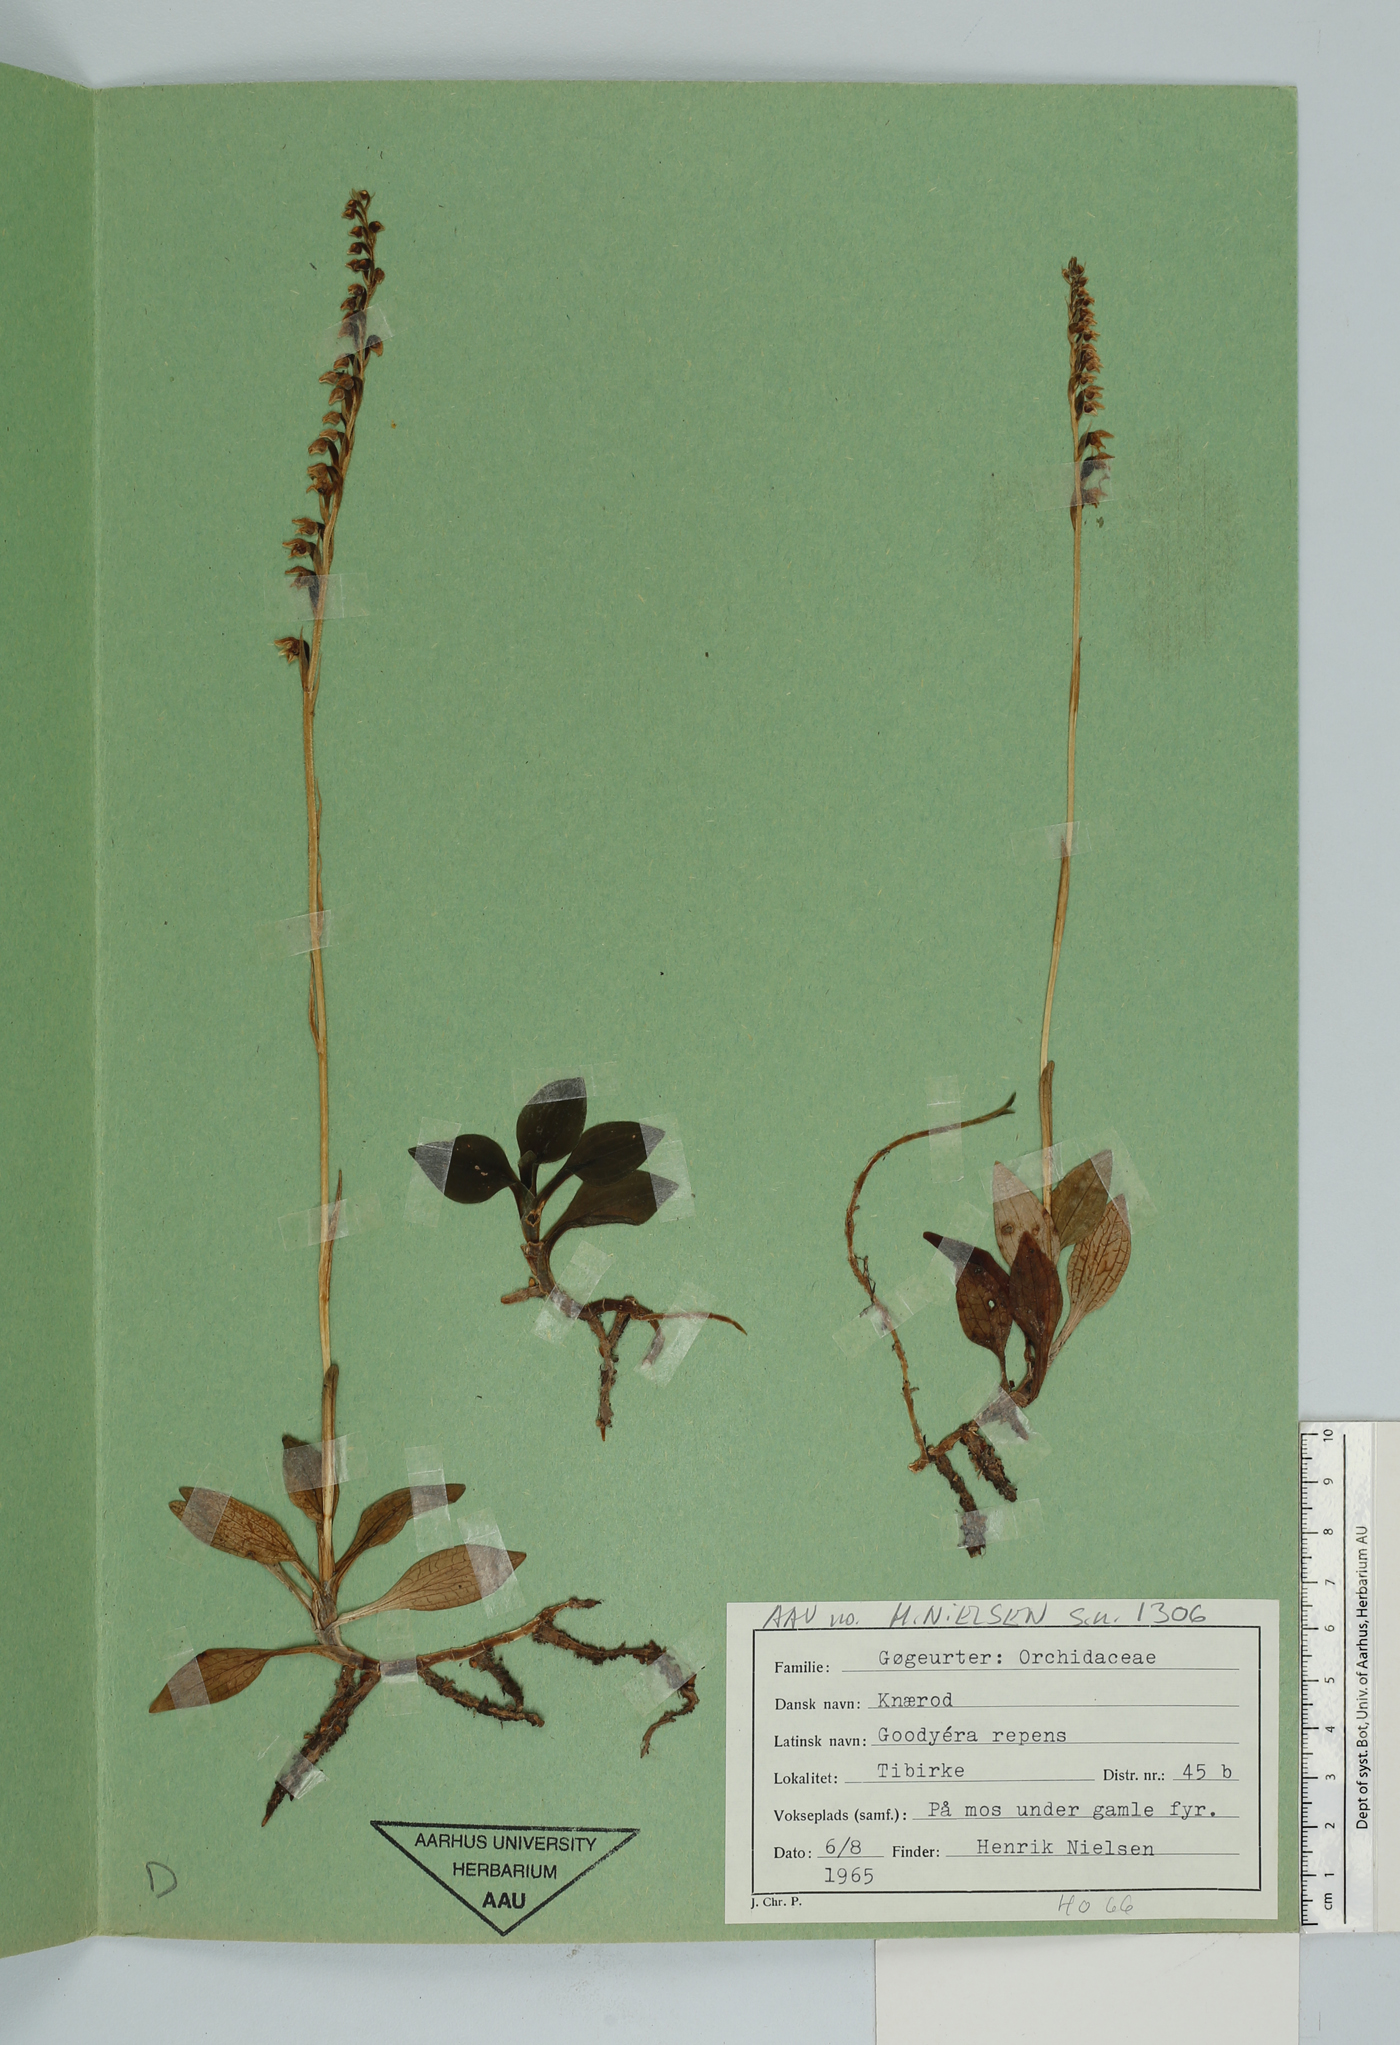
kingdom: Plantae
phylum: Tracheophyta
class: Liliopsida
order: Asparagales
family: Orchidaceae
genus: Goodyera
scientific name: Goodyera repens
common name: Creeping lady's-tresses
